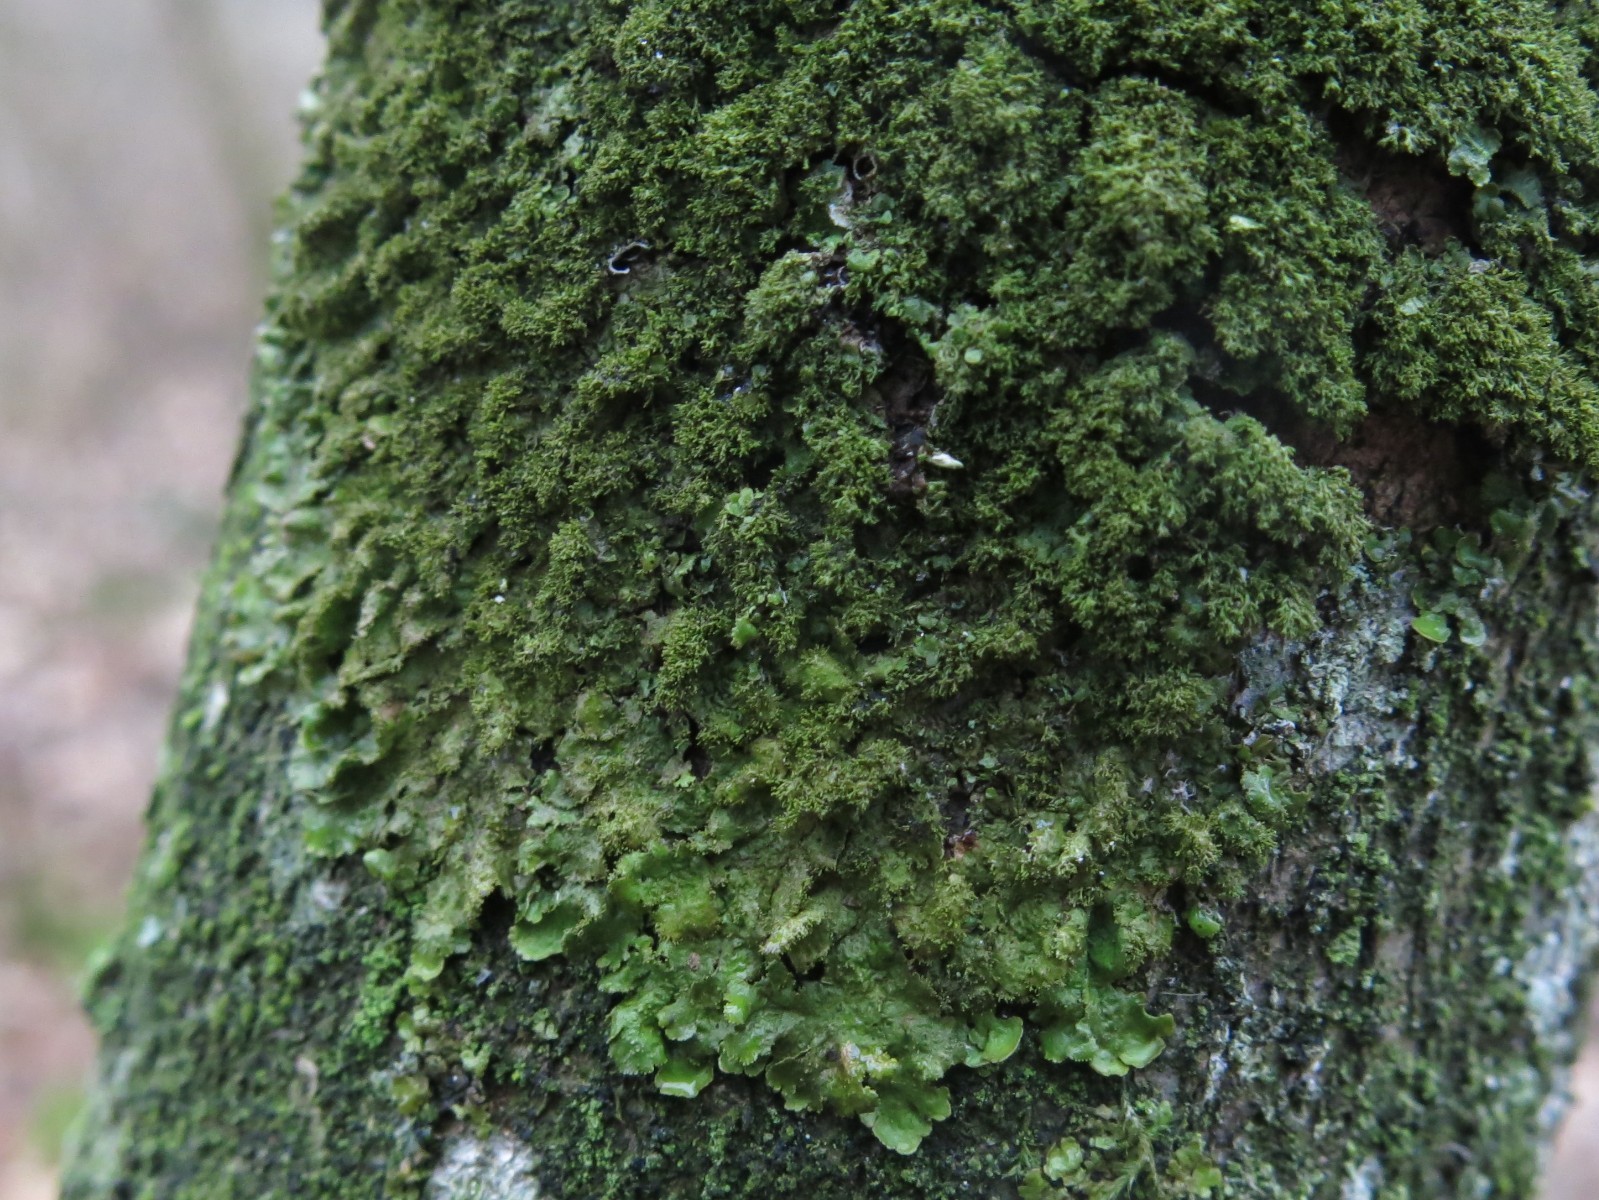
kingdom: Fungi
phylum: Ascomycota
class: Lecanoromycetes
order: Lecanorales
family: Parmeliaceae
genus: Melanelixia
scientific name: Melanelixia glabratula
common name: glinsende skållav
